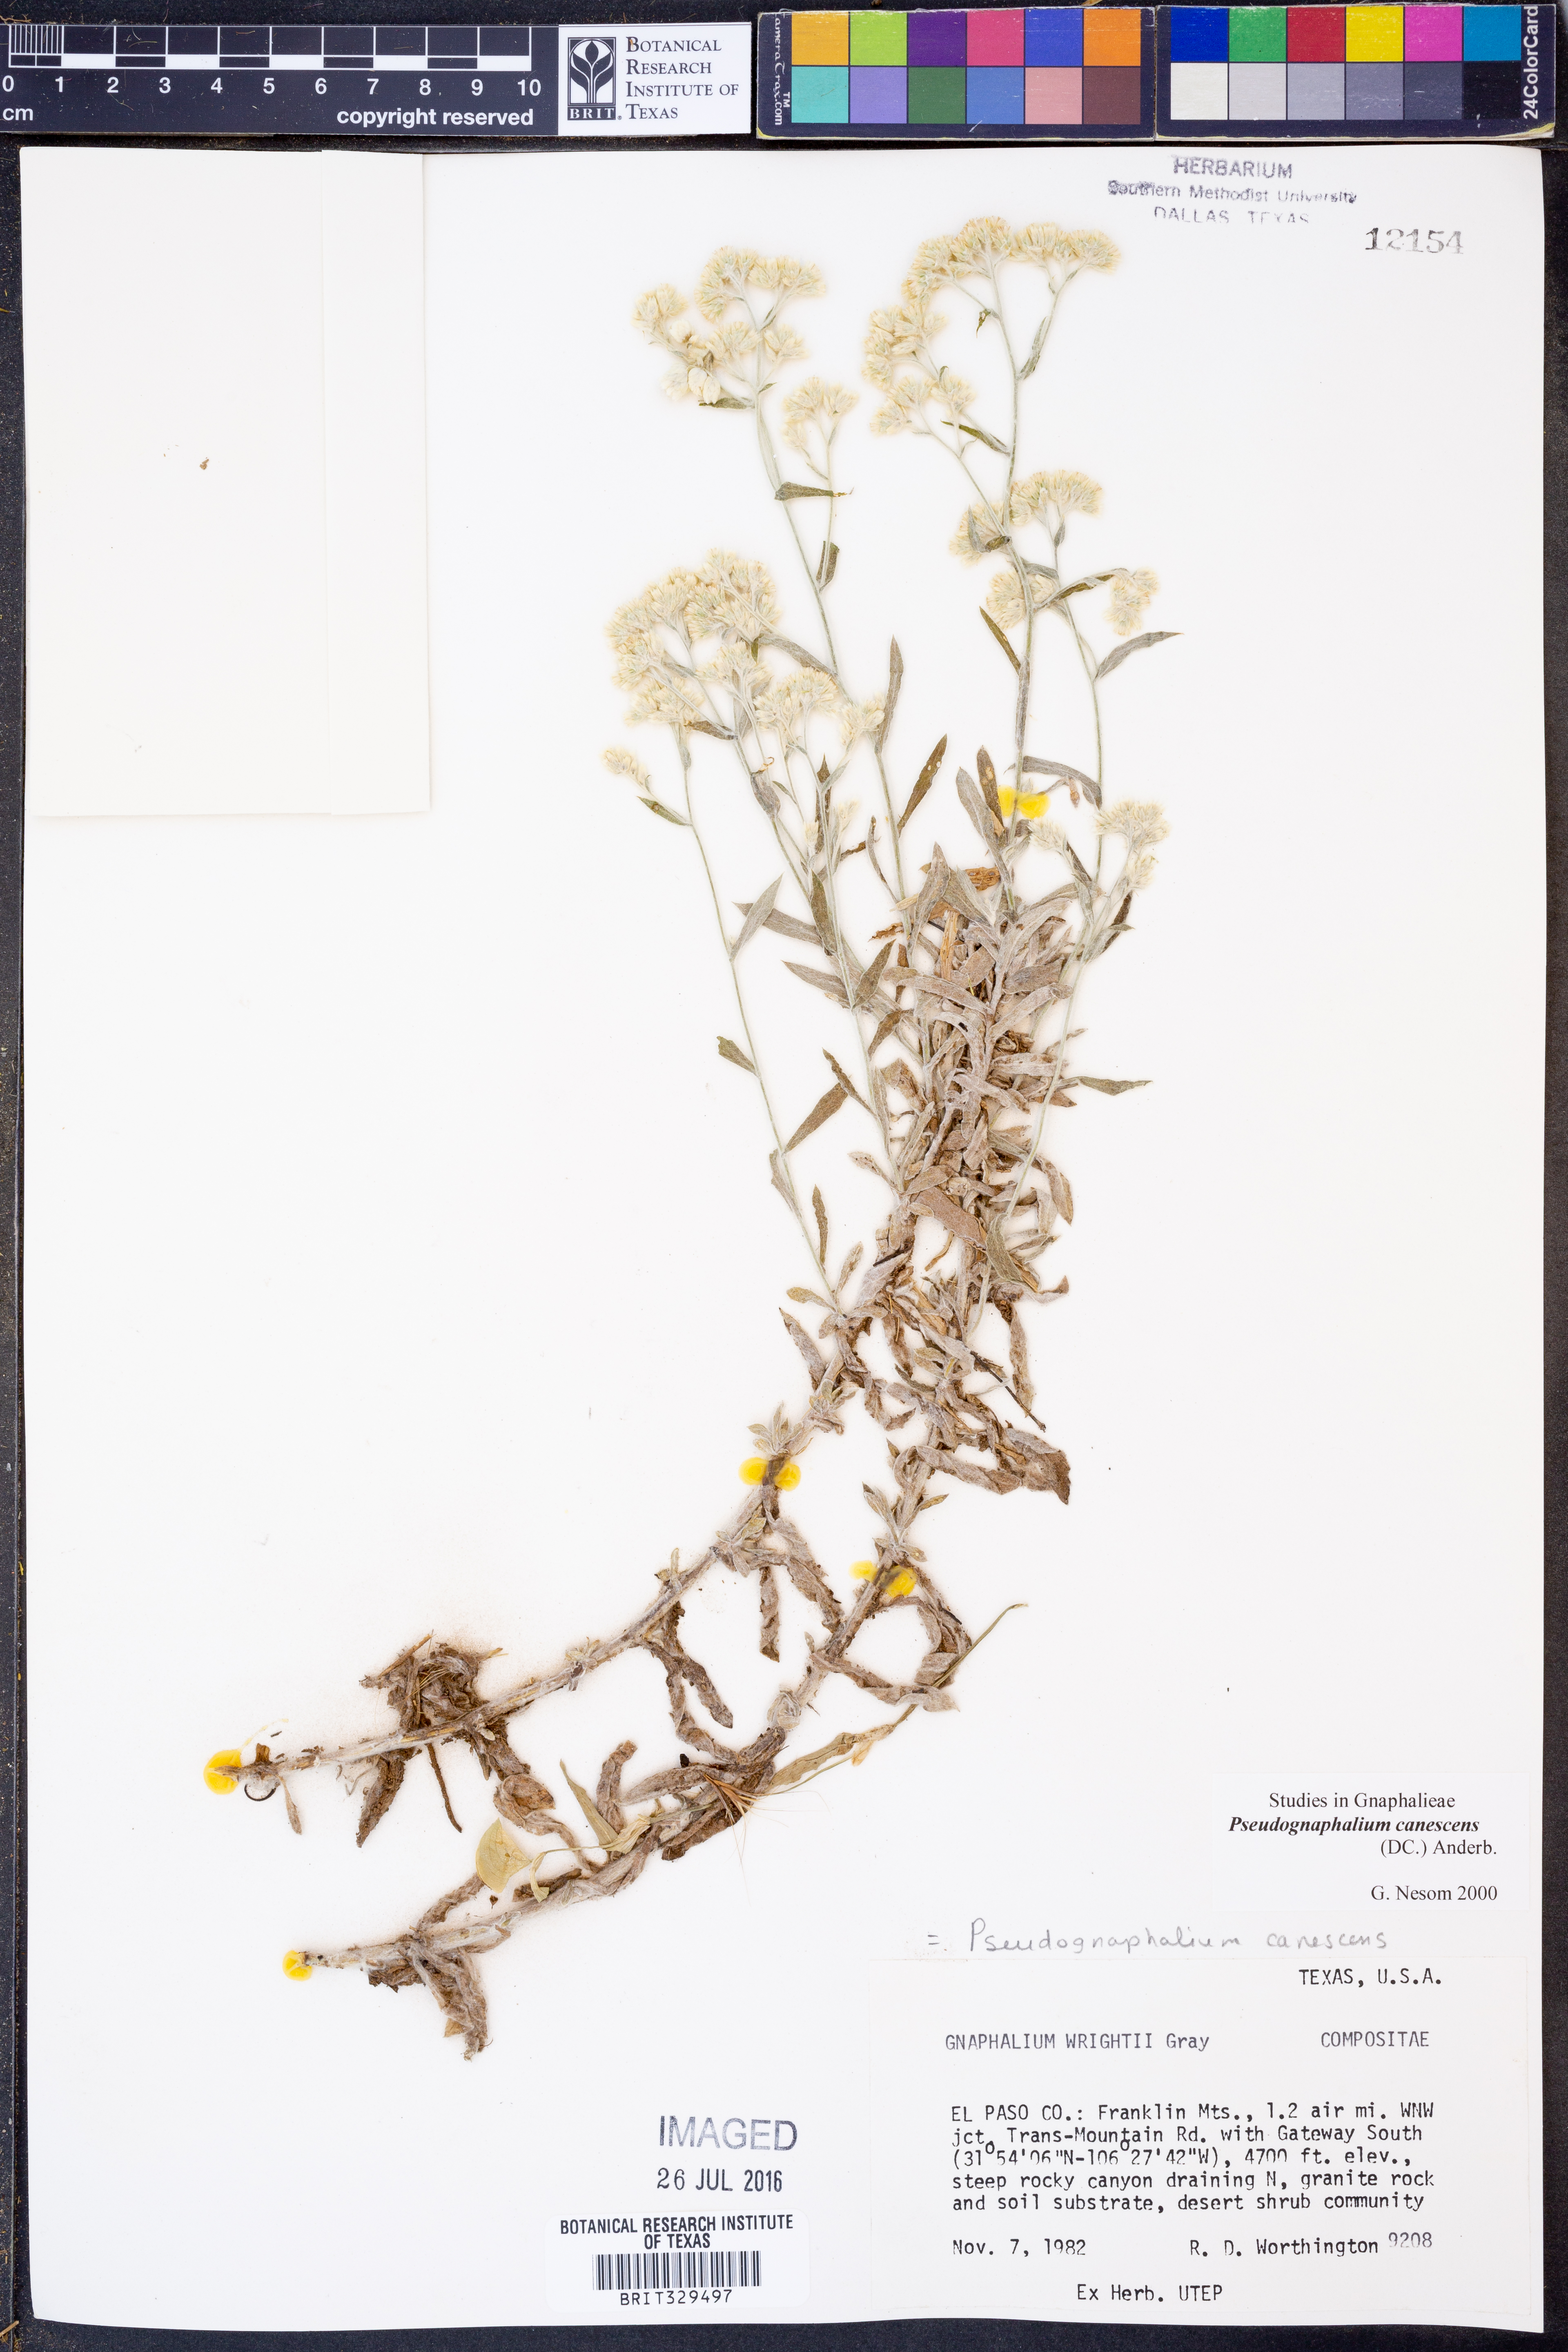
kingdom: Plantae
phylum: Tracheophyta
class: Magnoliopsida
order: Asterales
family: Asteraceae
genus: Pseudognaphalium
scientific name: Pseudognaphalium canescens
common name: Wright's rabbit-tobacco
